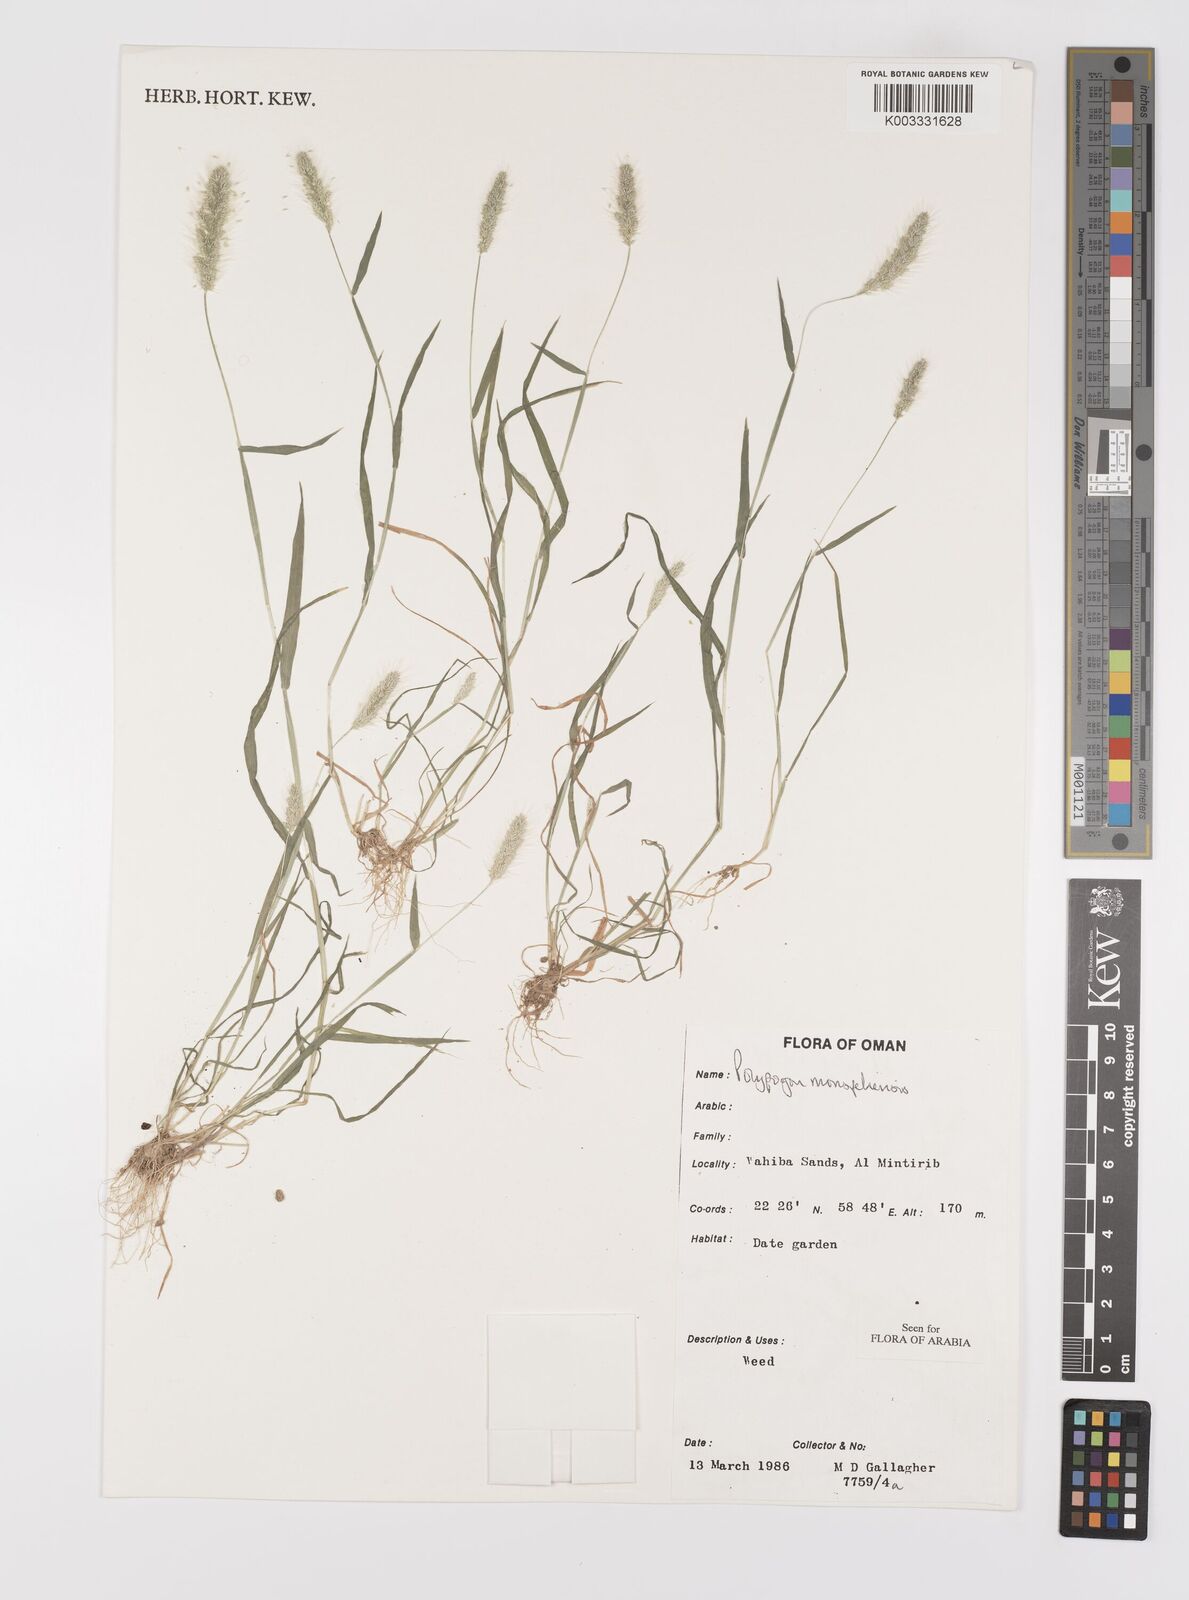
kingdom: Plantae
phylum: Tracheophyta
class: Liliopsida
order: Poales
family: Poaceae
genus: Polypogon
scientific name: Polypogon monspeliensis
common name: Annual rabbitsfoot grass
